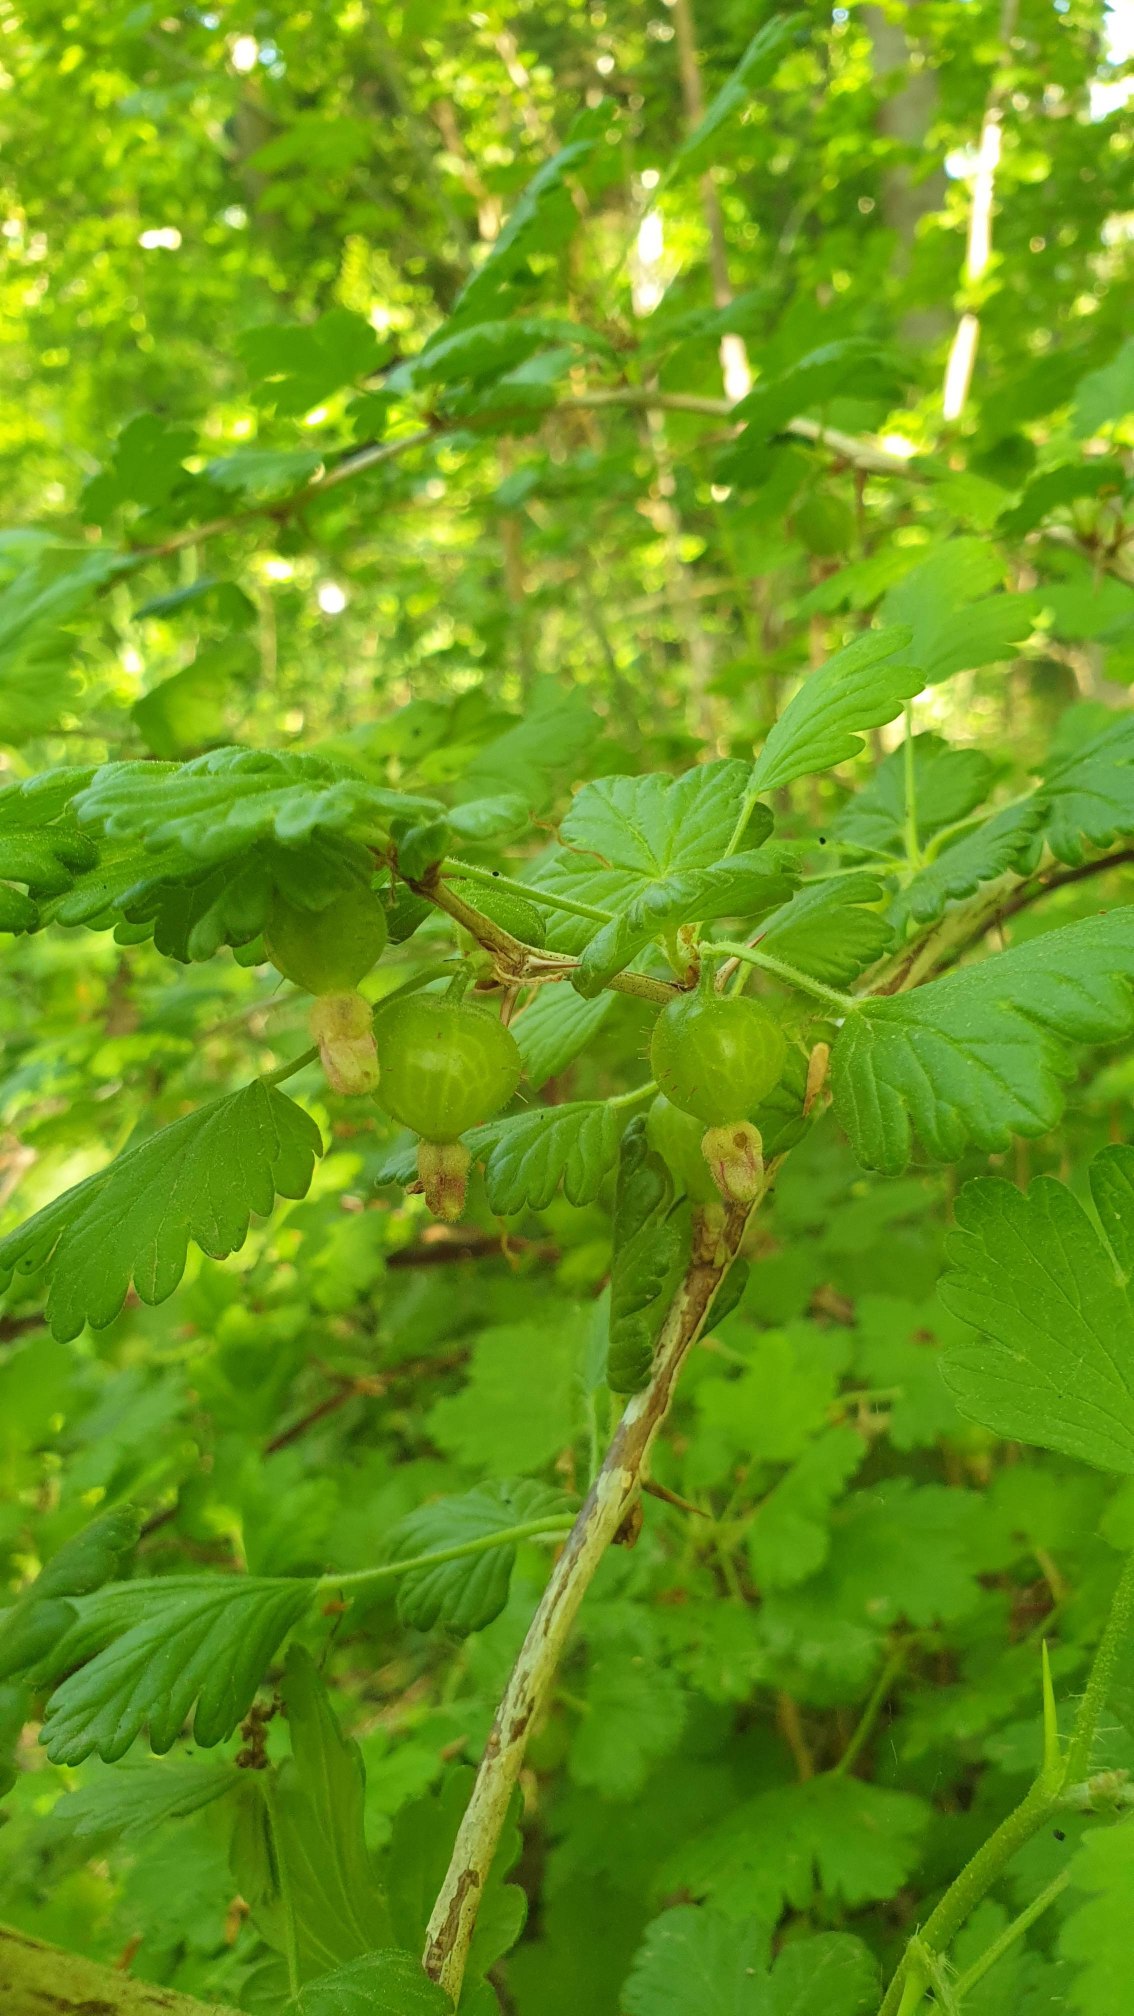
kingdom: Plantae
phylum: Tracheophyta
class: Magnoliopsida
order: Saxifragales
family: Grossulariaceae
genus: Ribes
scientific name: Ribes uva-crispa
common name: Stikkelsbær
